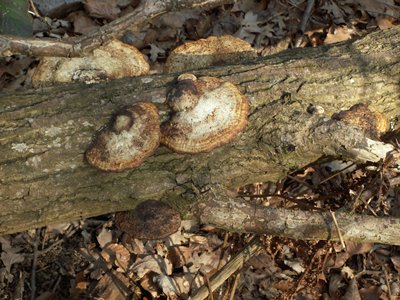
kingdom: Fungi
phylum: Basidiomycota
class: Agaricomycetes
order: Polyporales
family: Polyporaceae
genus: Daedaleopsis
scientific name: Daedaleopsis confragosa
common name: rødmende læderporesvamp
